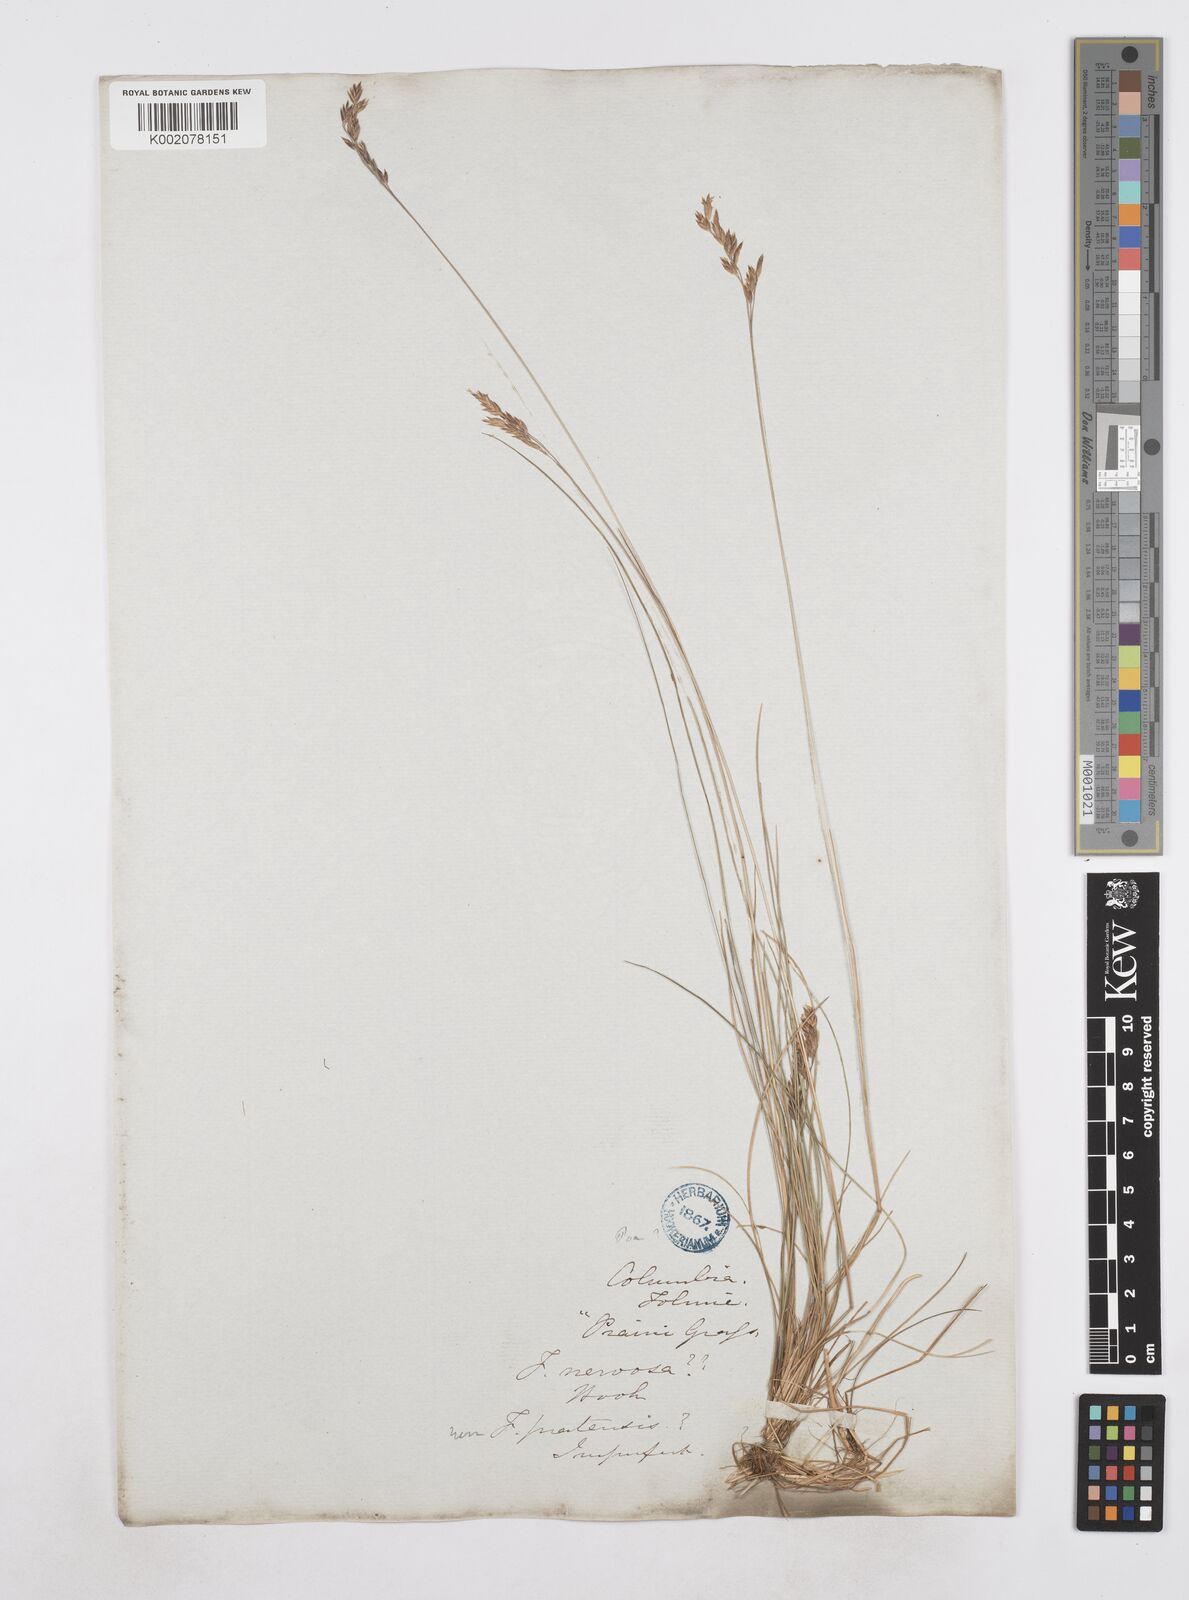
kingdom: Plantae
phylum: Tracheophyta
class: Liliopsida
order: Poales
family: Poaceae
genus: Poa
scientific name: Poa
